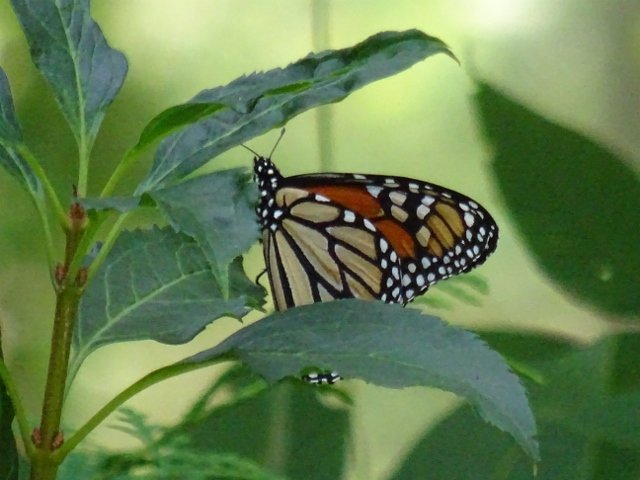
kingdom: Animalia
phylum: Arthropoda
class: Insecta
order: Lepidoptera
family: Nymphalidae
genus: Danaus
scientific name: Danaus plexippus
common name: Monarch
